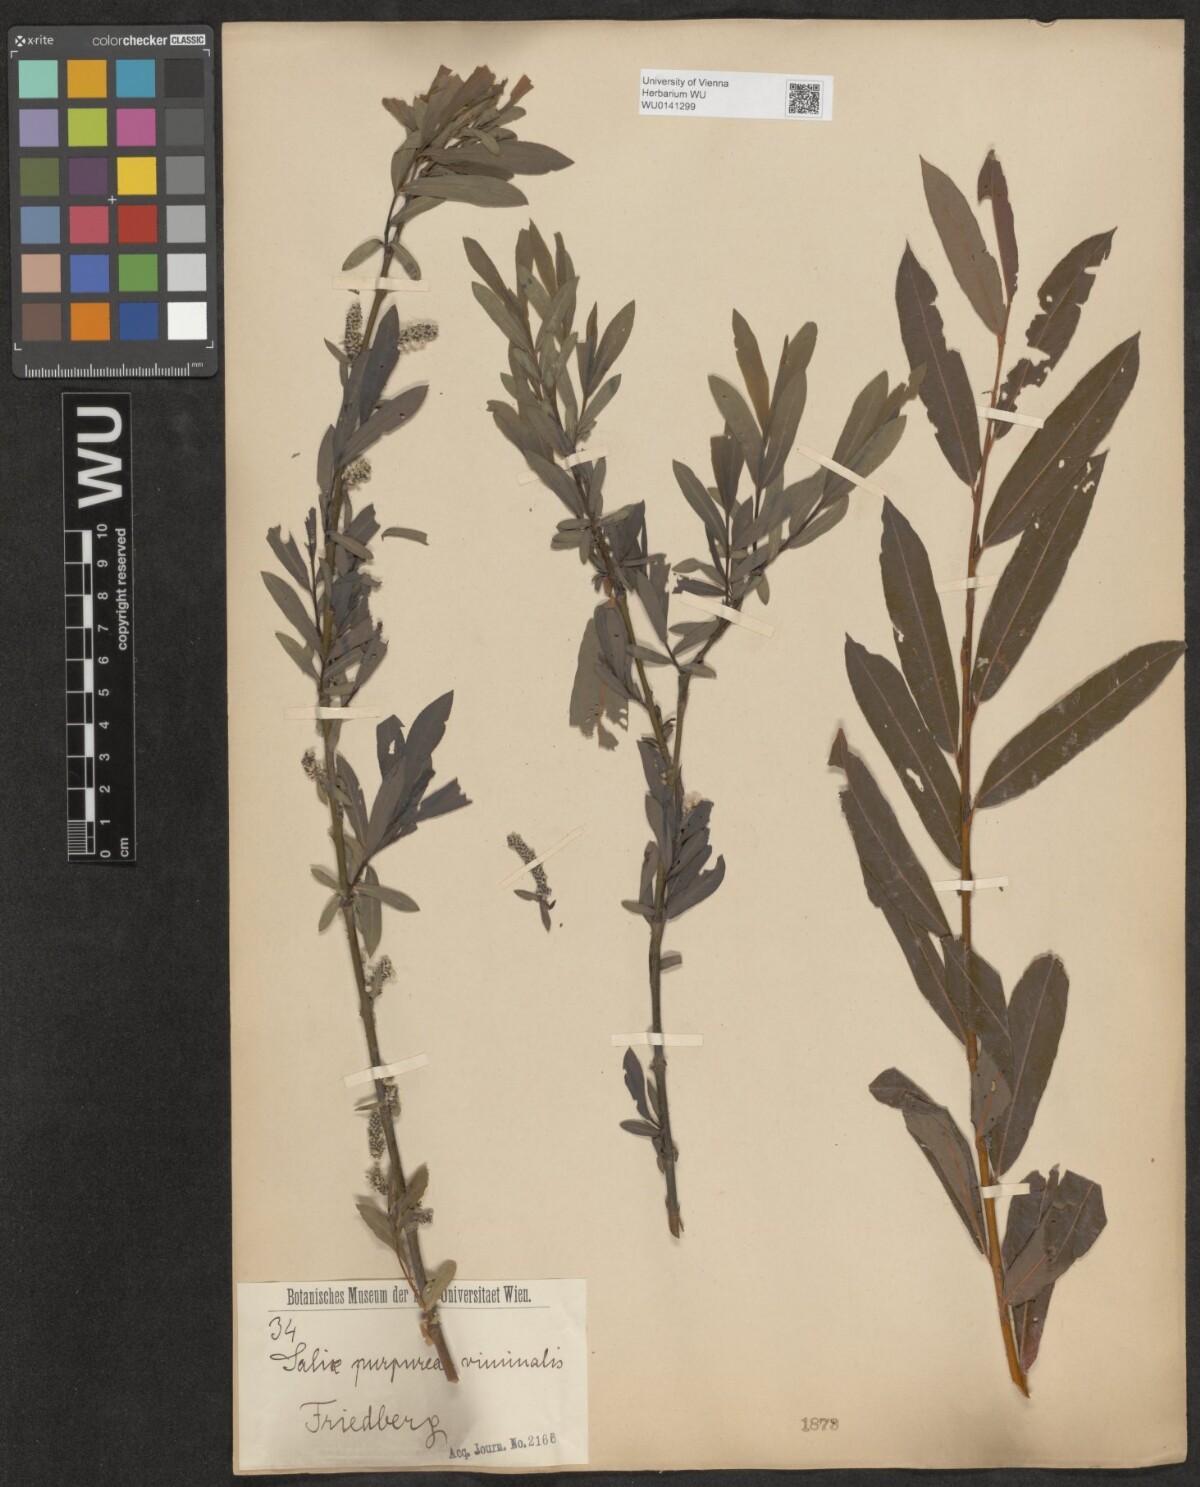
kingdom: Plantae
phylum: Tracheophyta
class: Magnoliopsida
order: Malpighiales
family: Salicaceae
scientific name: Salicaceae
